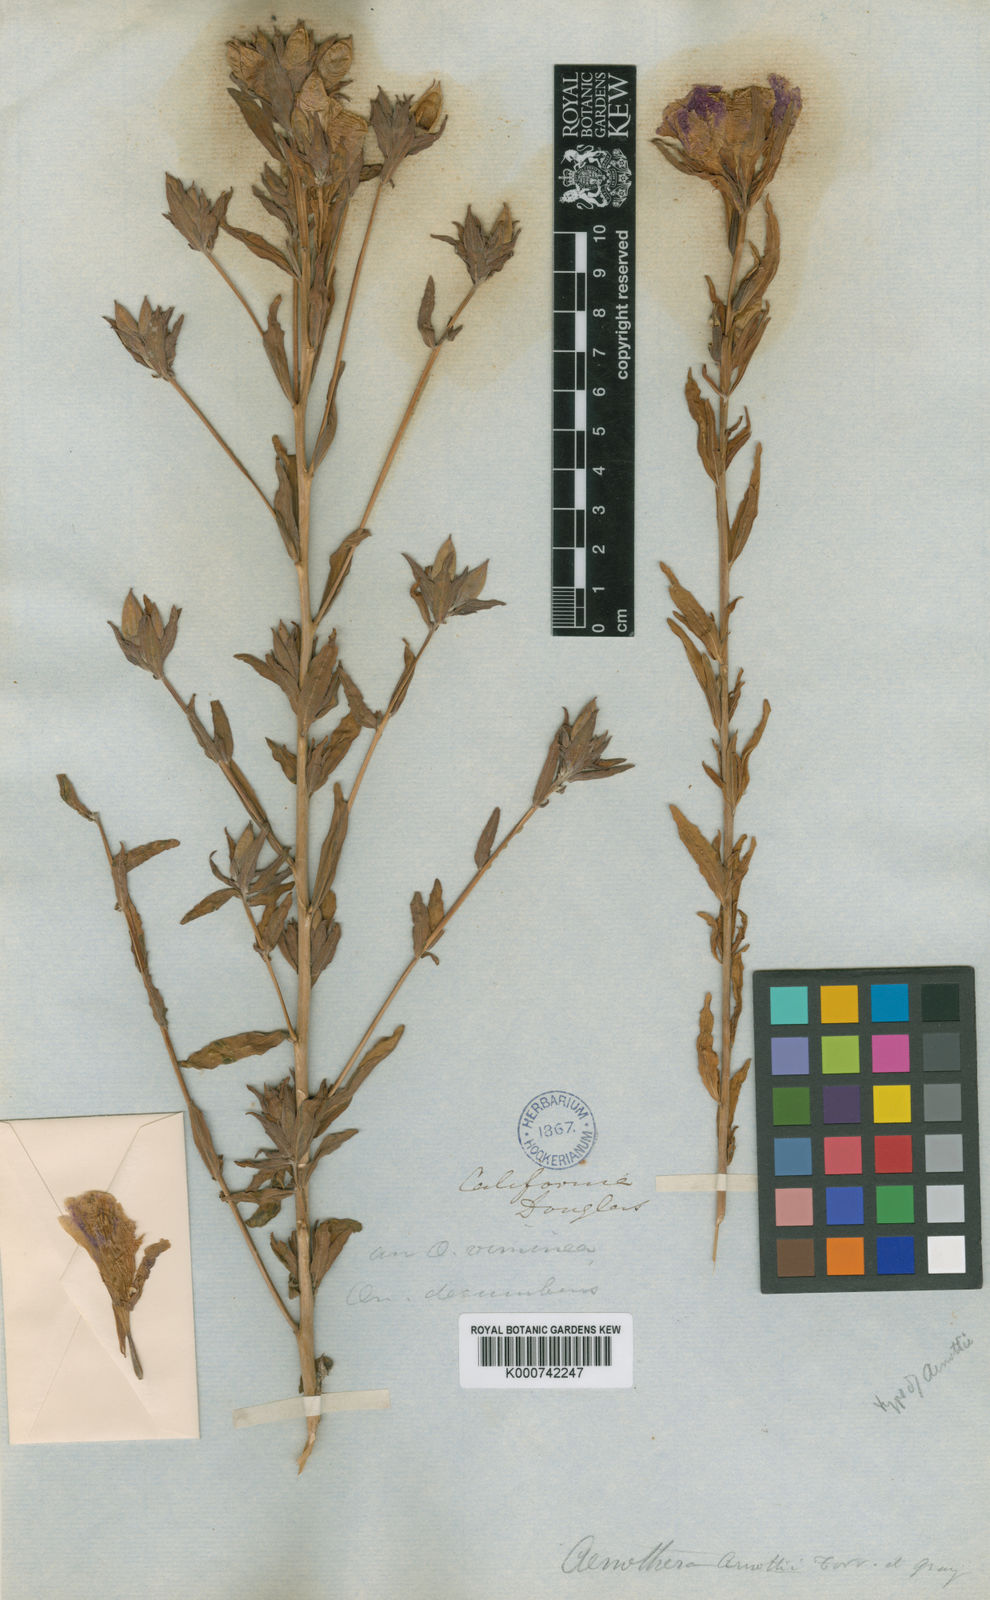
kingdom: Plantae
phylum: Tracheophyta
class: Magnoliopsida
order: Myrtales
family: Onagraceae
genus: Clarkia
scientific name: Clarkia purpurea
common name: Purple clarkia
